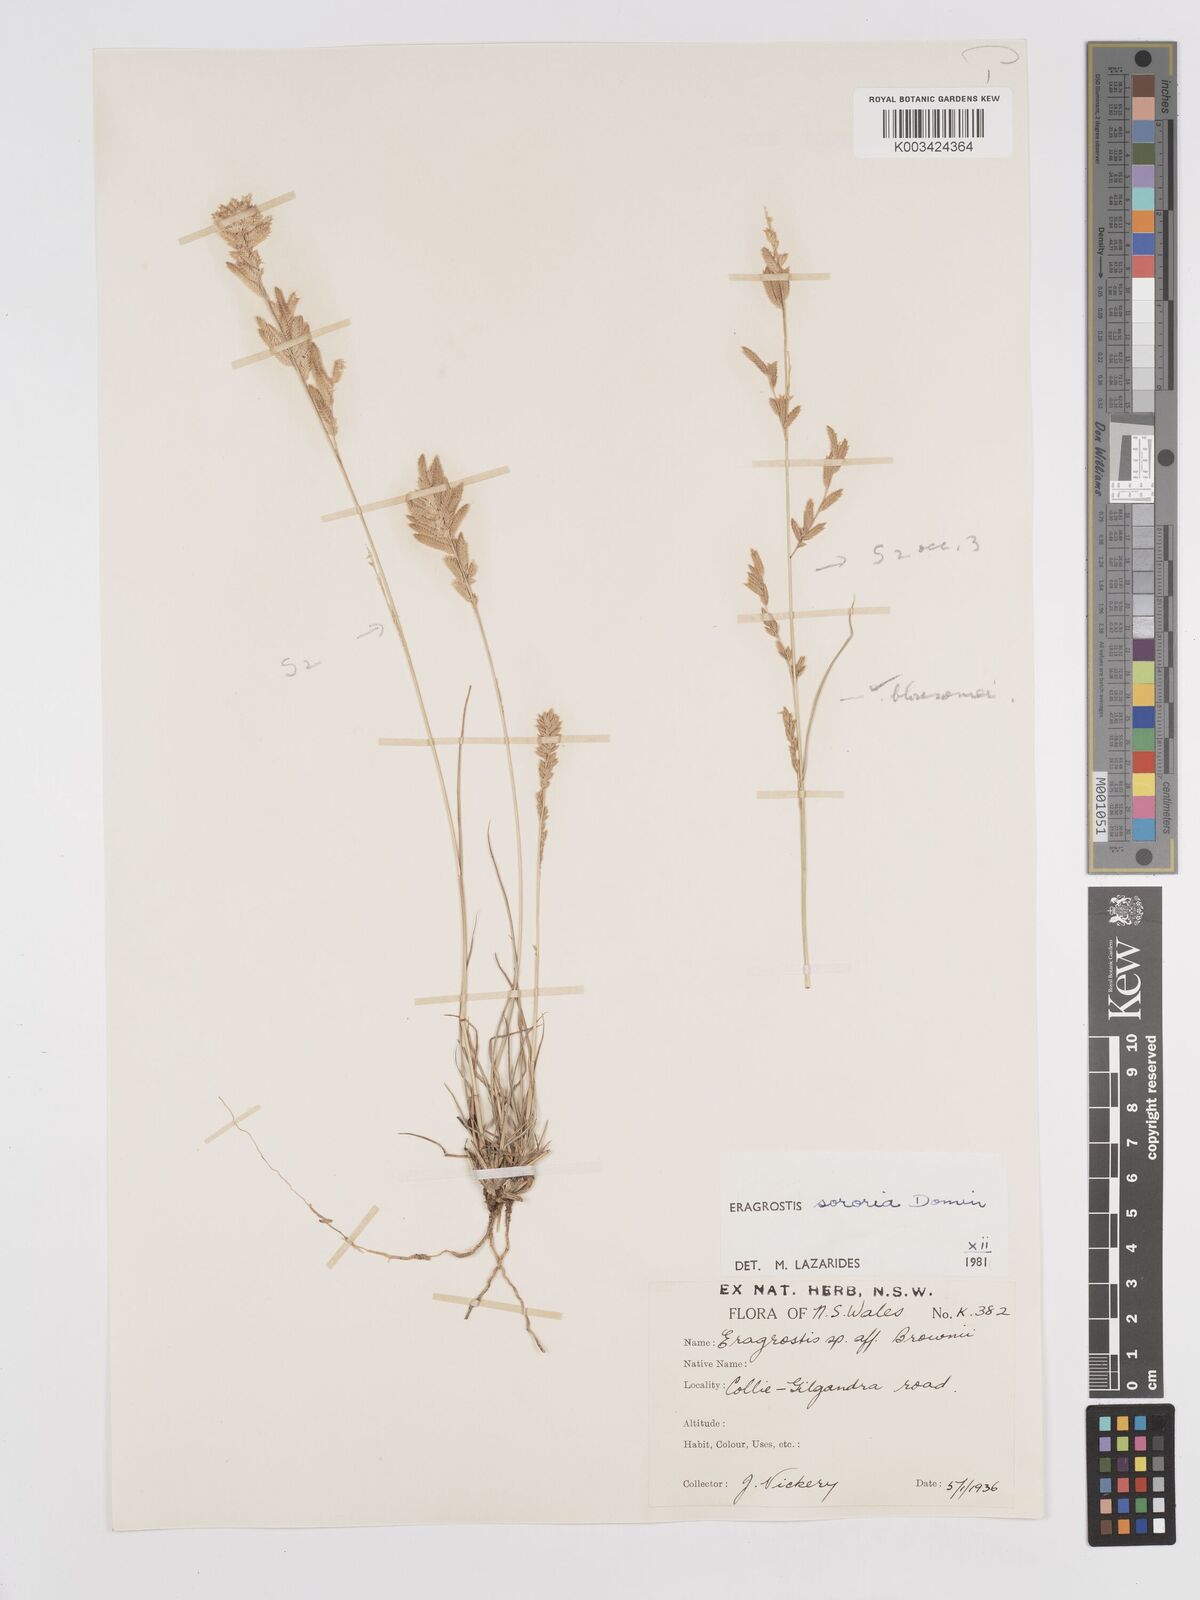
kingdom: Plantae
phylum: Tracheophyta
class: Liliopsida
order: Poales
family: Poaceae
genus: Eragrostis
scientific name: Eragrostis sororia
